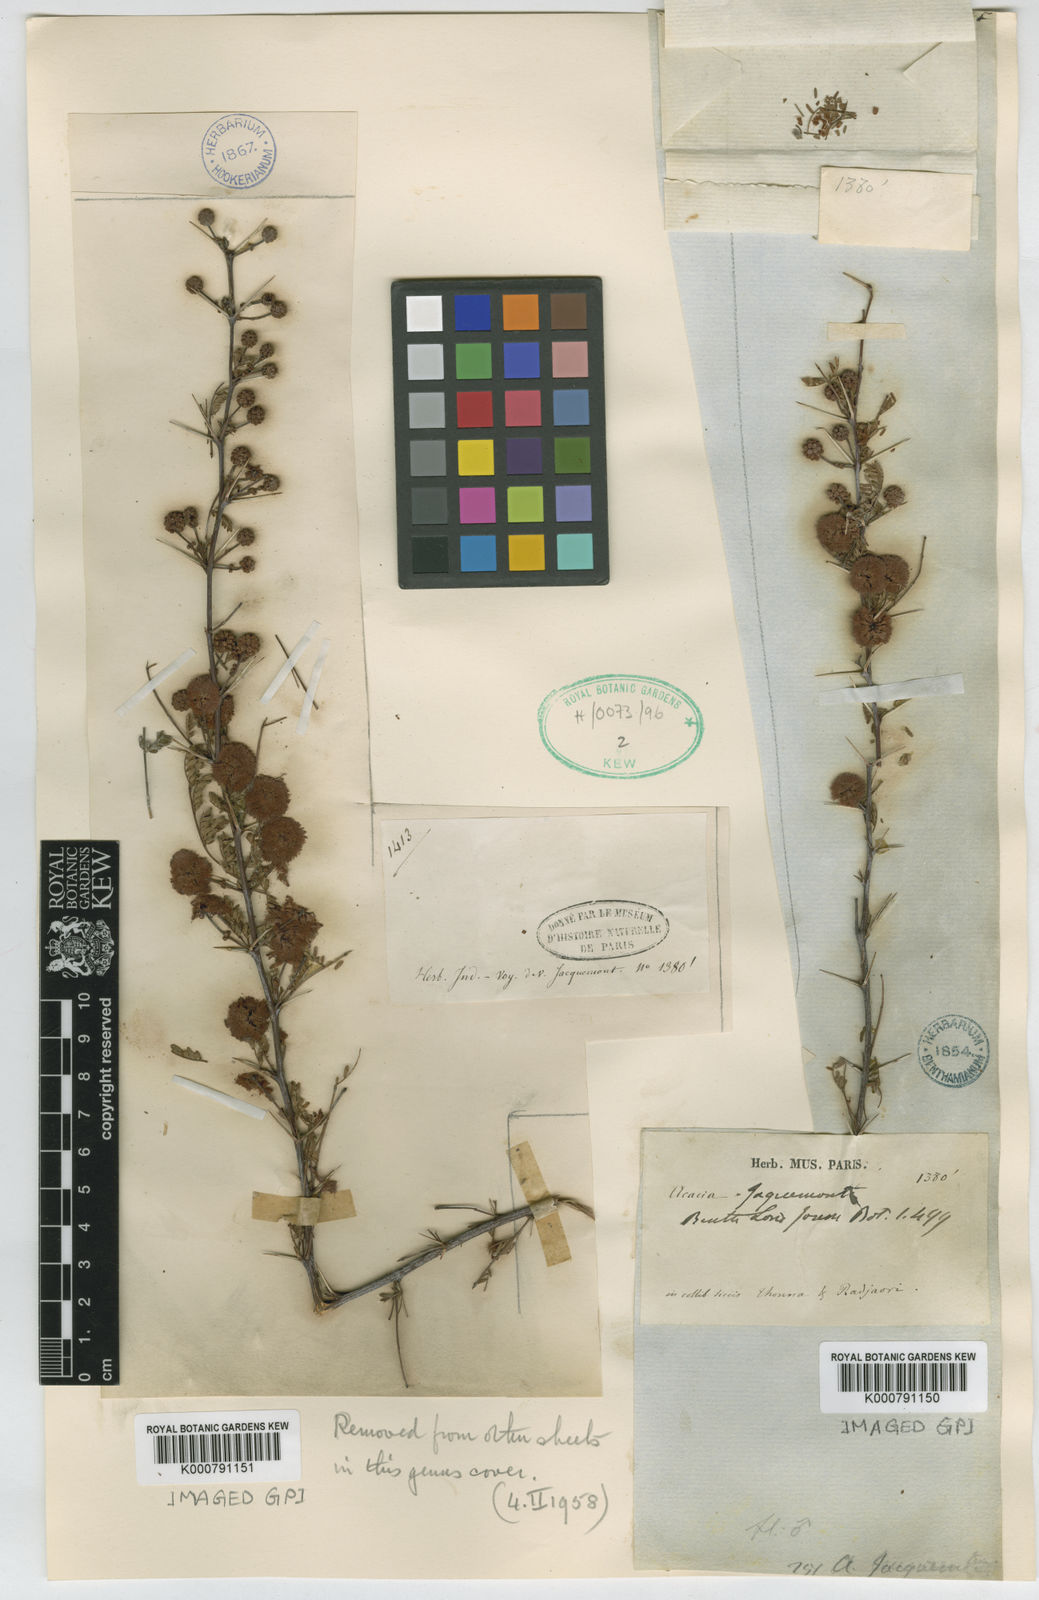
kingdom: Plantae
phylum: Tracheophyta
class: Magnoliopsida
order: Fabales
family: Fabaceae
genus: Vachellia
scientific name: Vachellia jacquemontii
